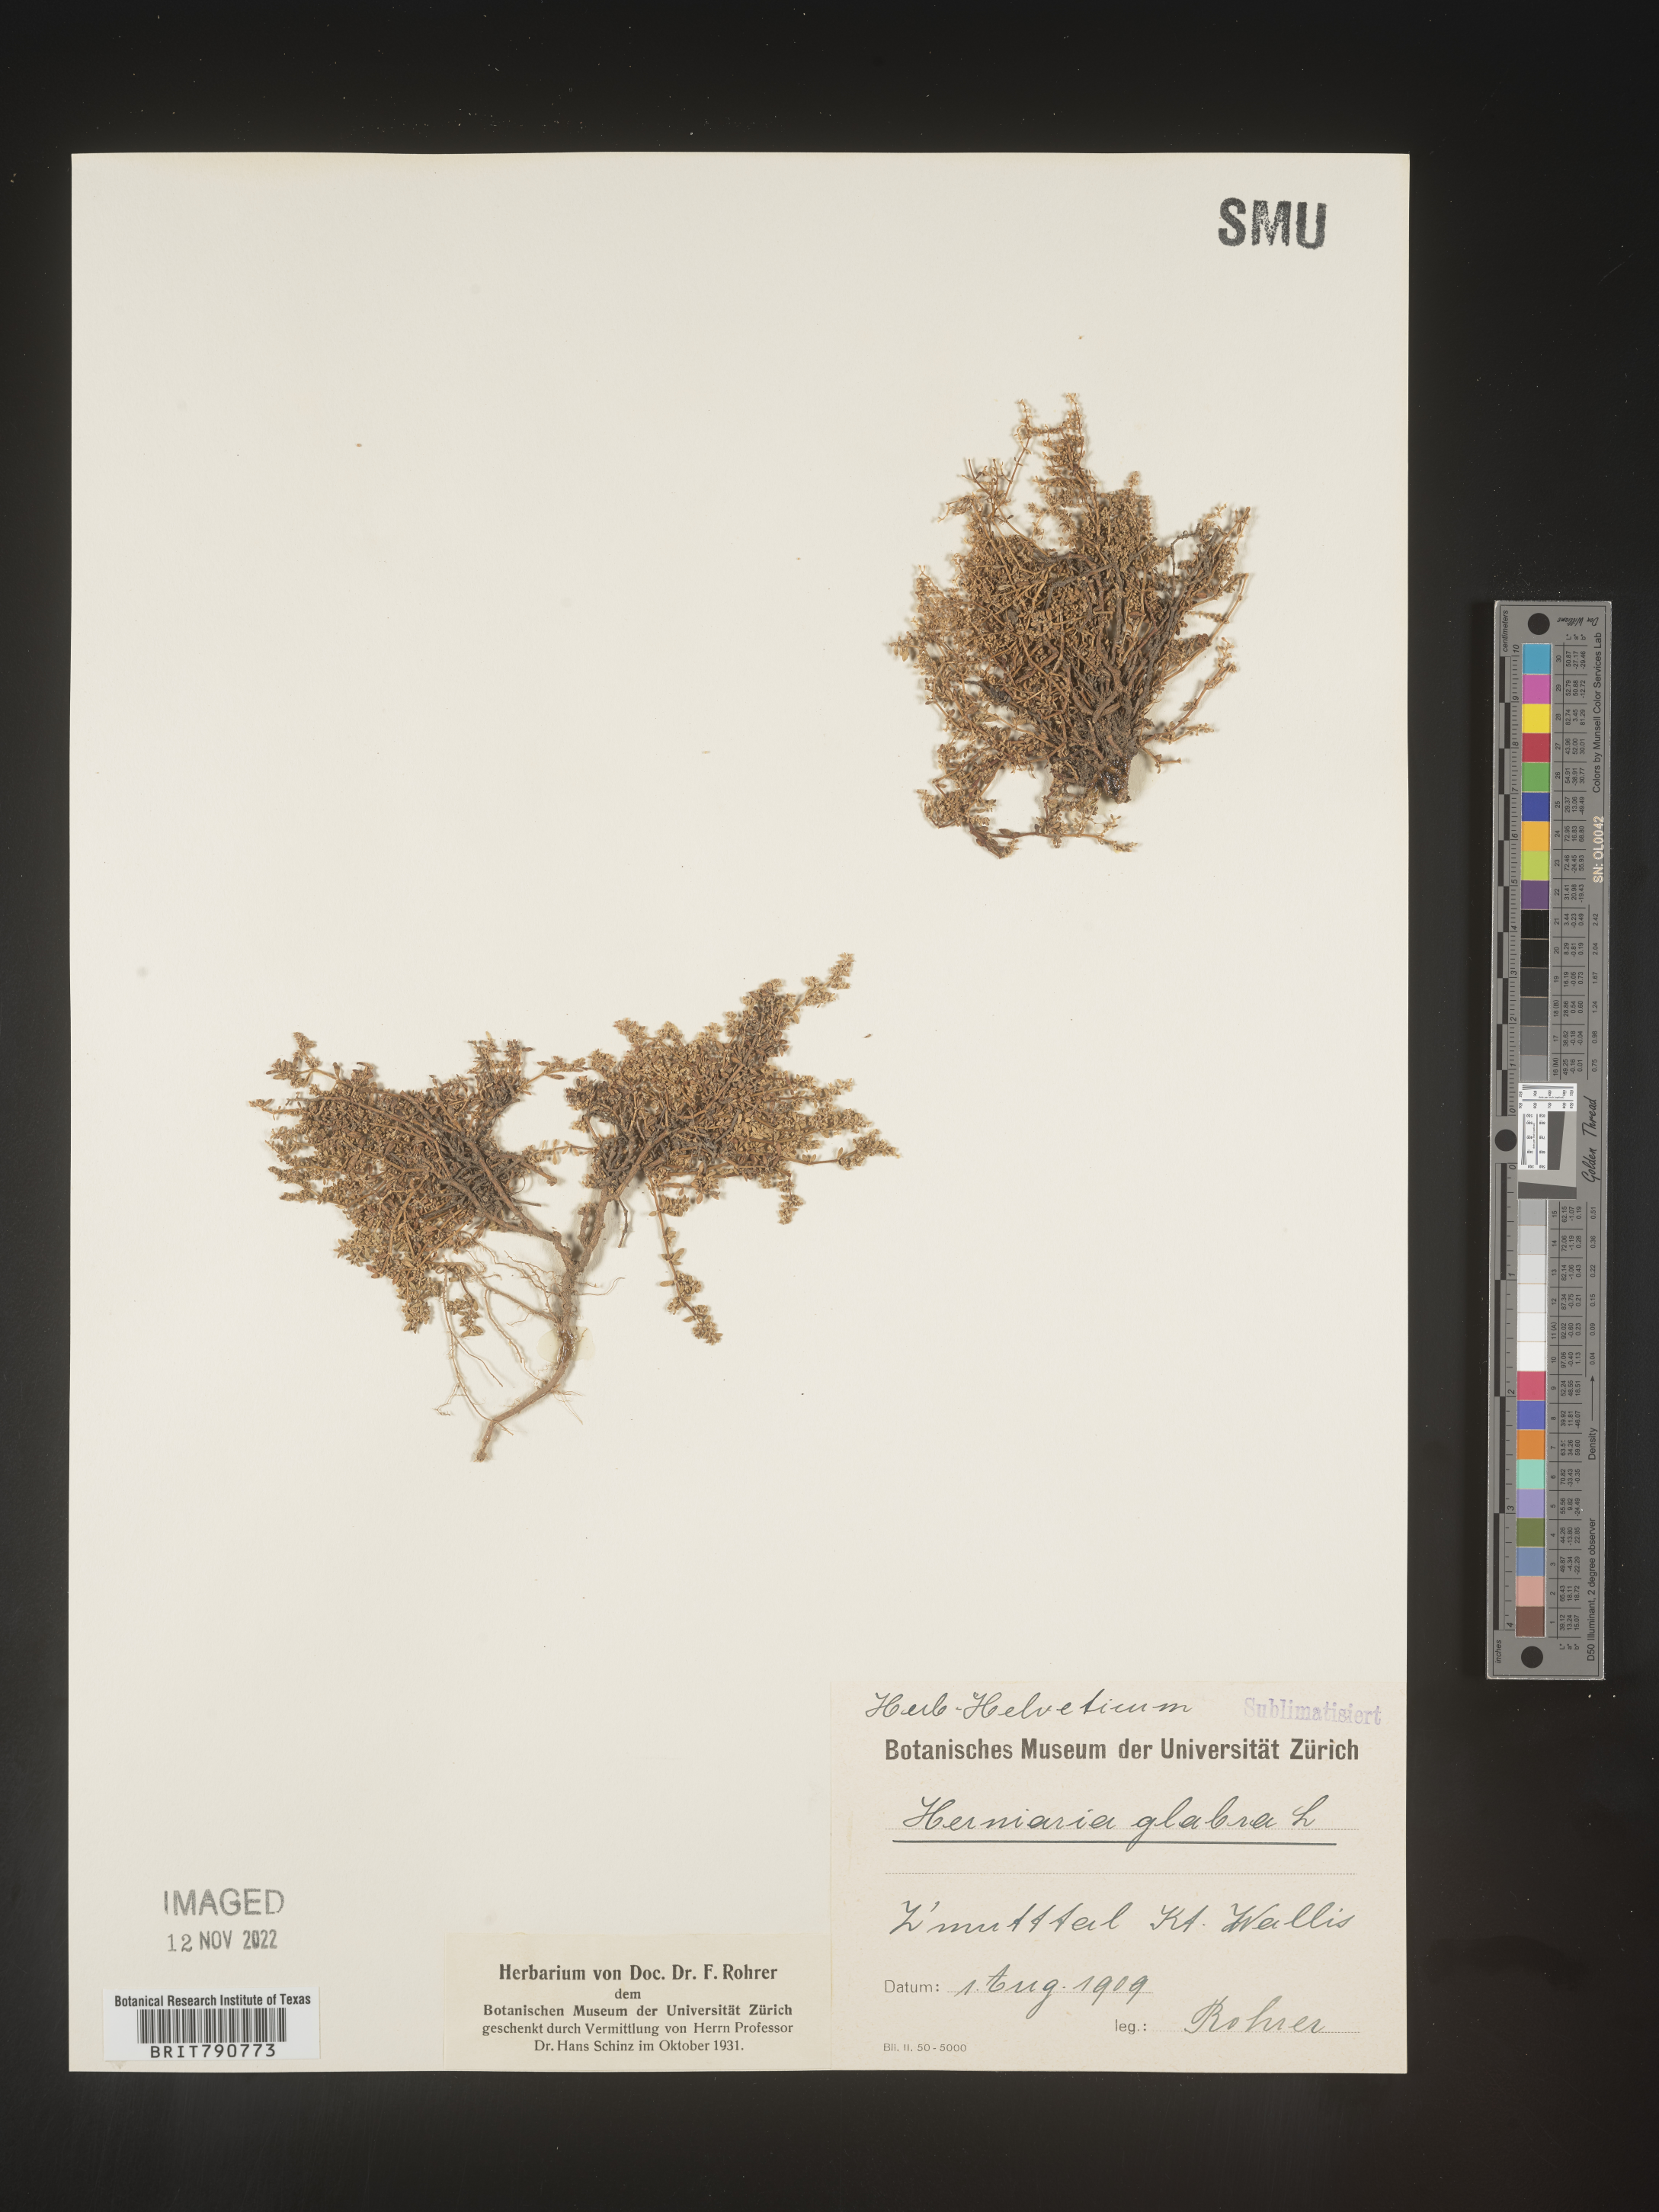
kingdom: Plantae
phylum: Tracheophyta
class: Magnoliopsida
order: Caryophyllales
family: Caryophyllaceae
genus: Herniaria
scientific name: Herniaria
